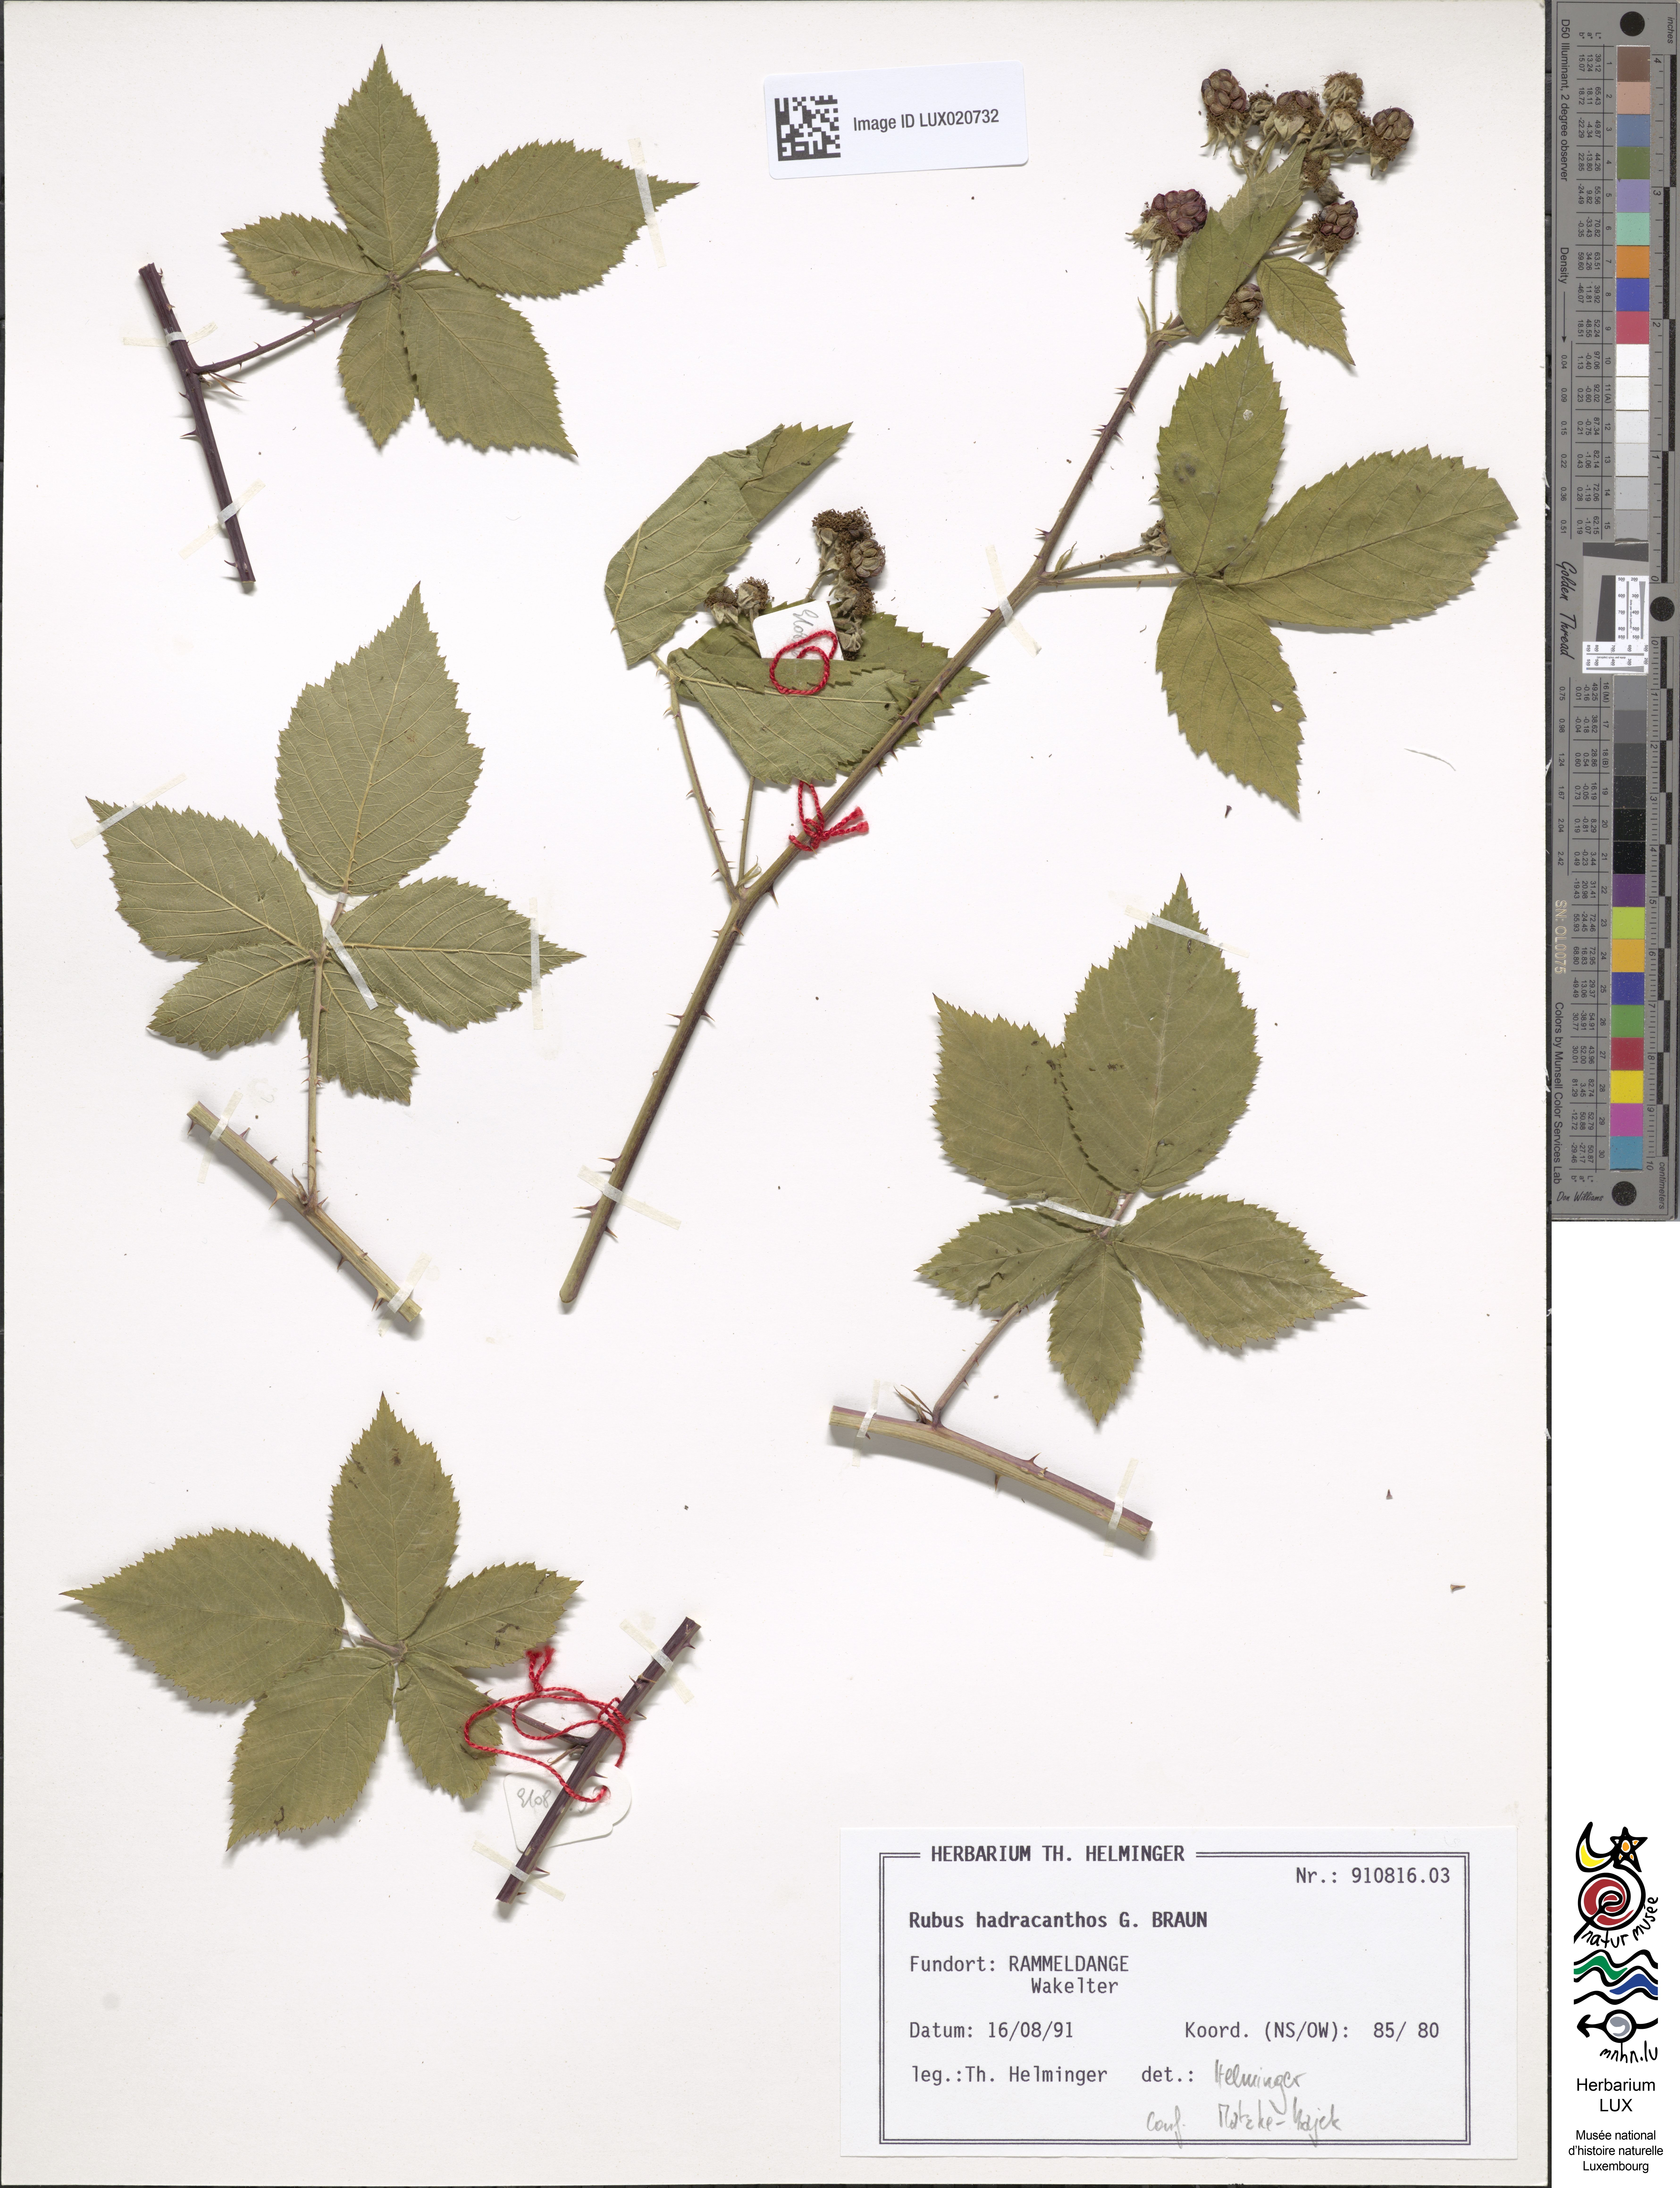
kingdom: Plantae
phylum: Tracheophyta
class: Magnoliopsida
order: Rosales
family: Rosaceae
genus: Rubus
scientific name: Rubus hadracanthos
